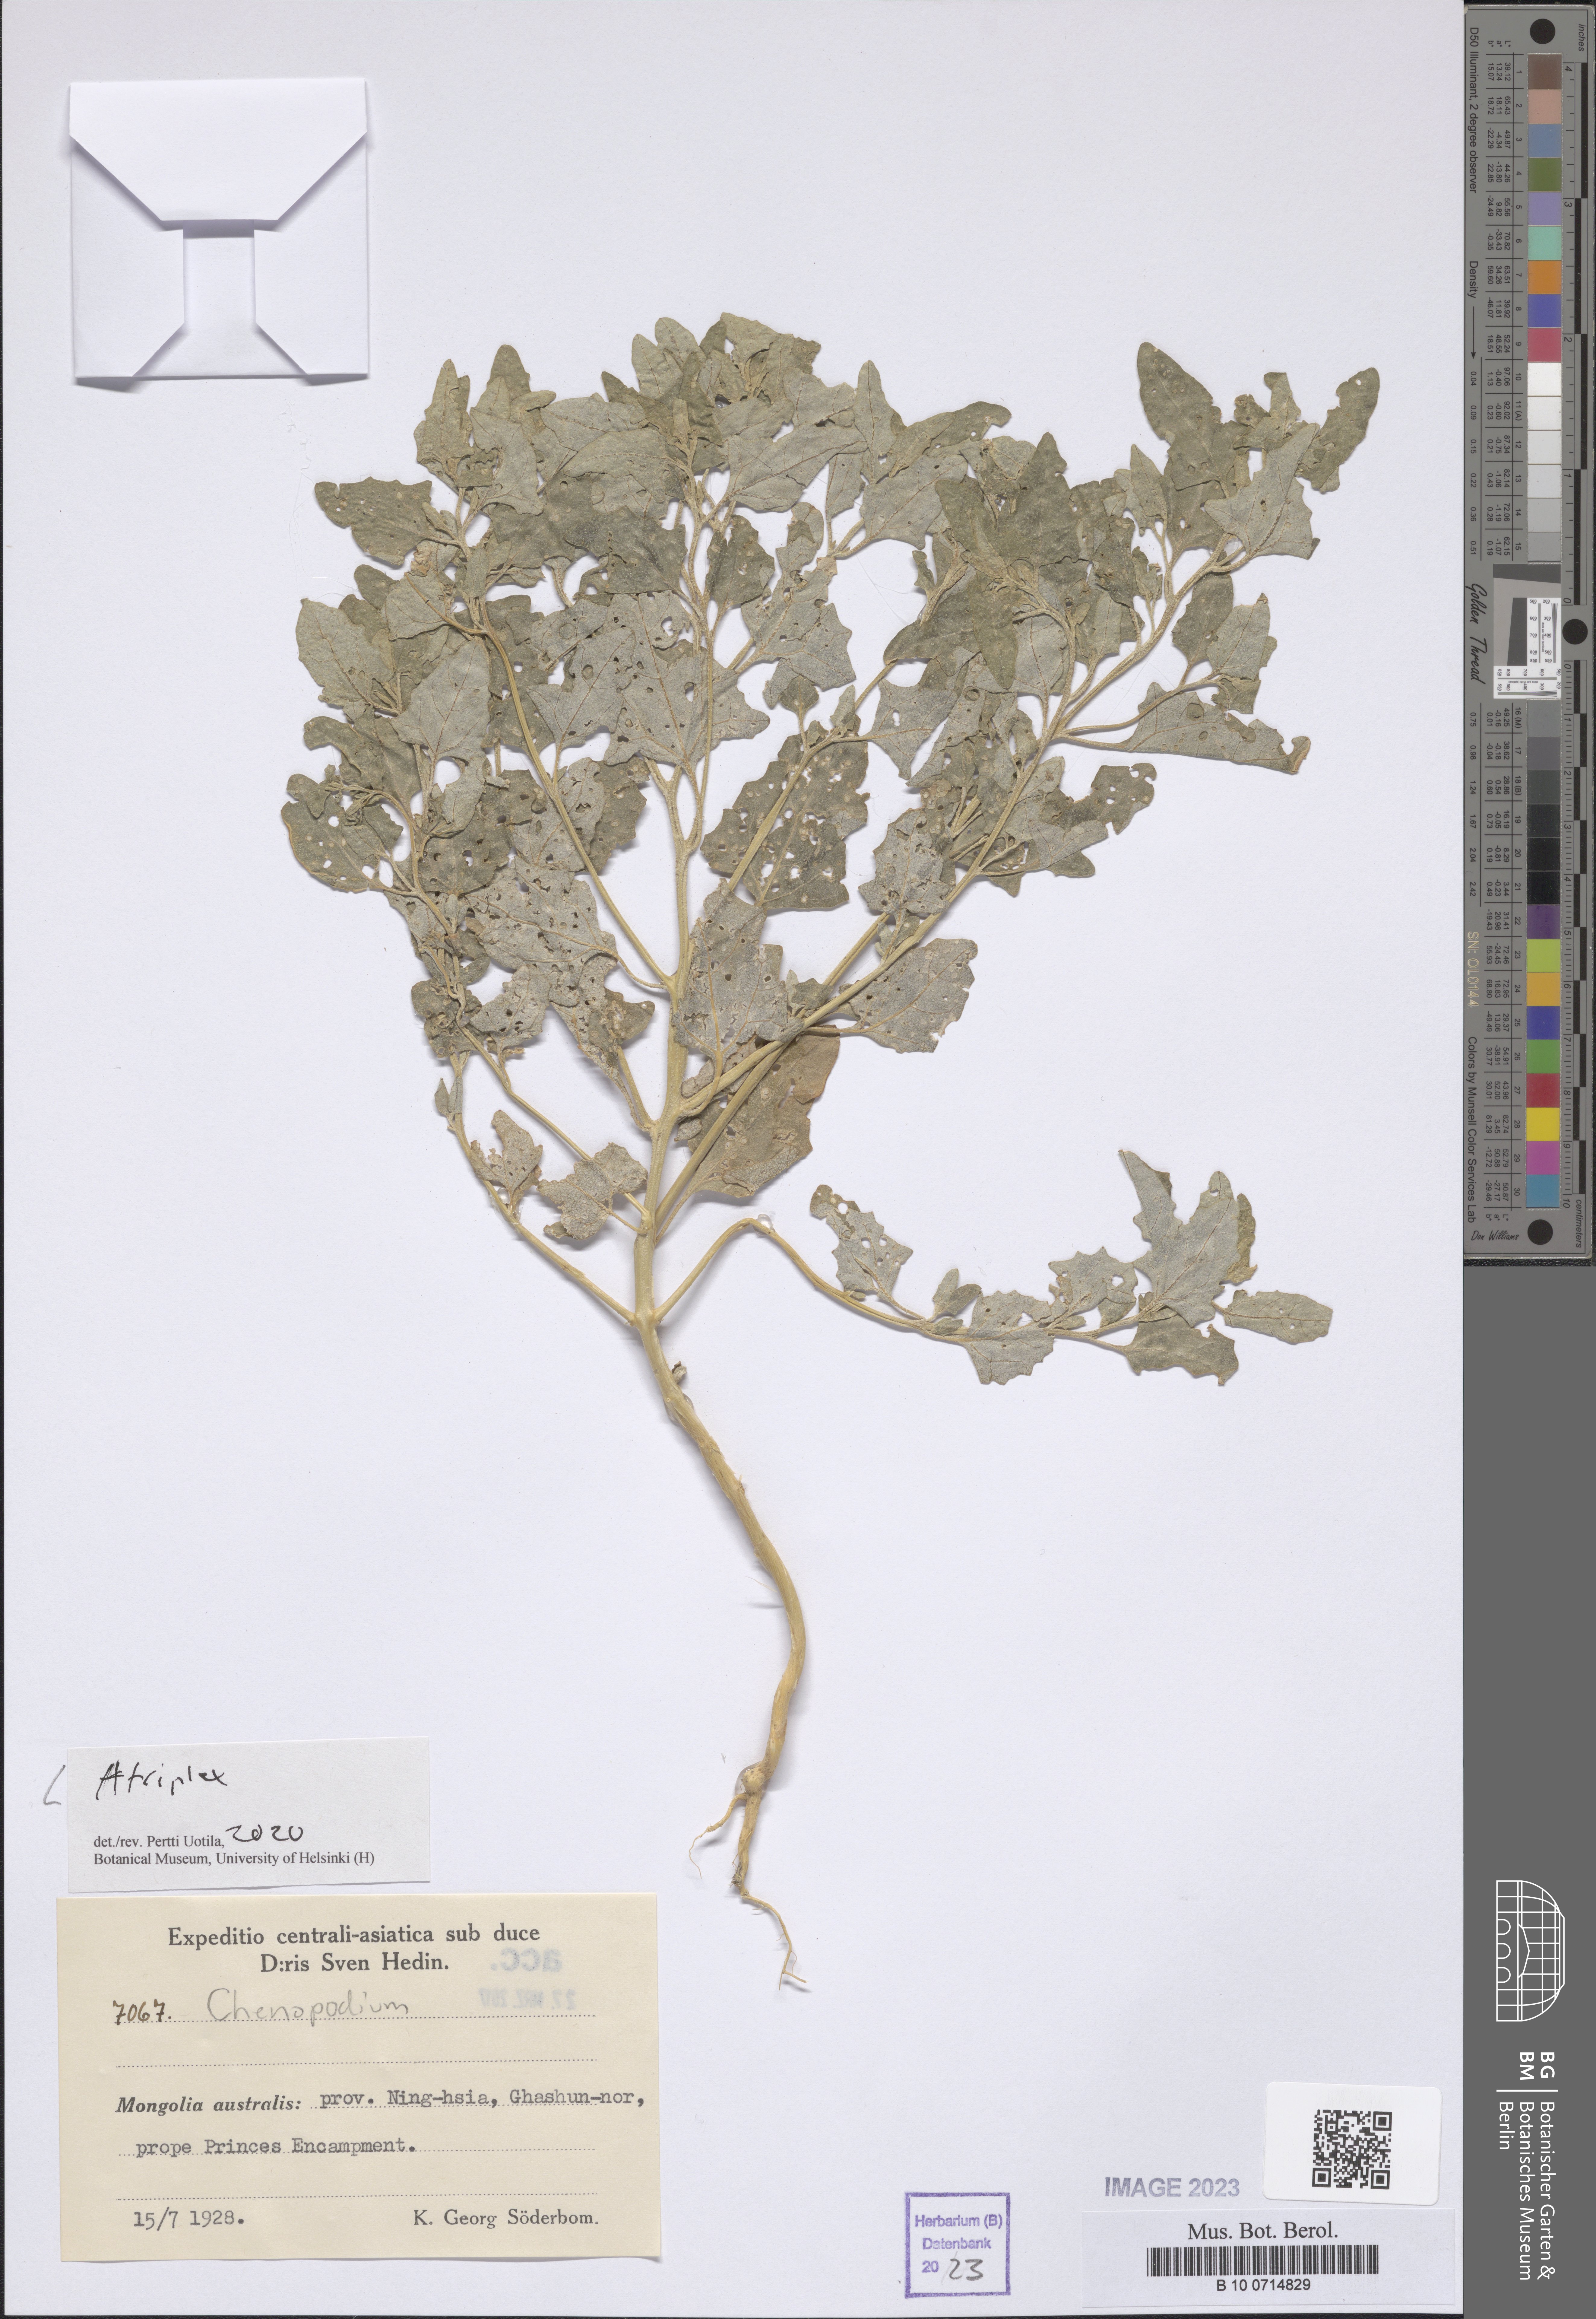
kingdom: Plantae
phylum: Tracheophyta
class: Magnoliopsida
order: Caryophyllales
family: Amaranthaceae
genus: Atriplex
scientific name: Atriplex
